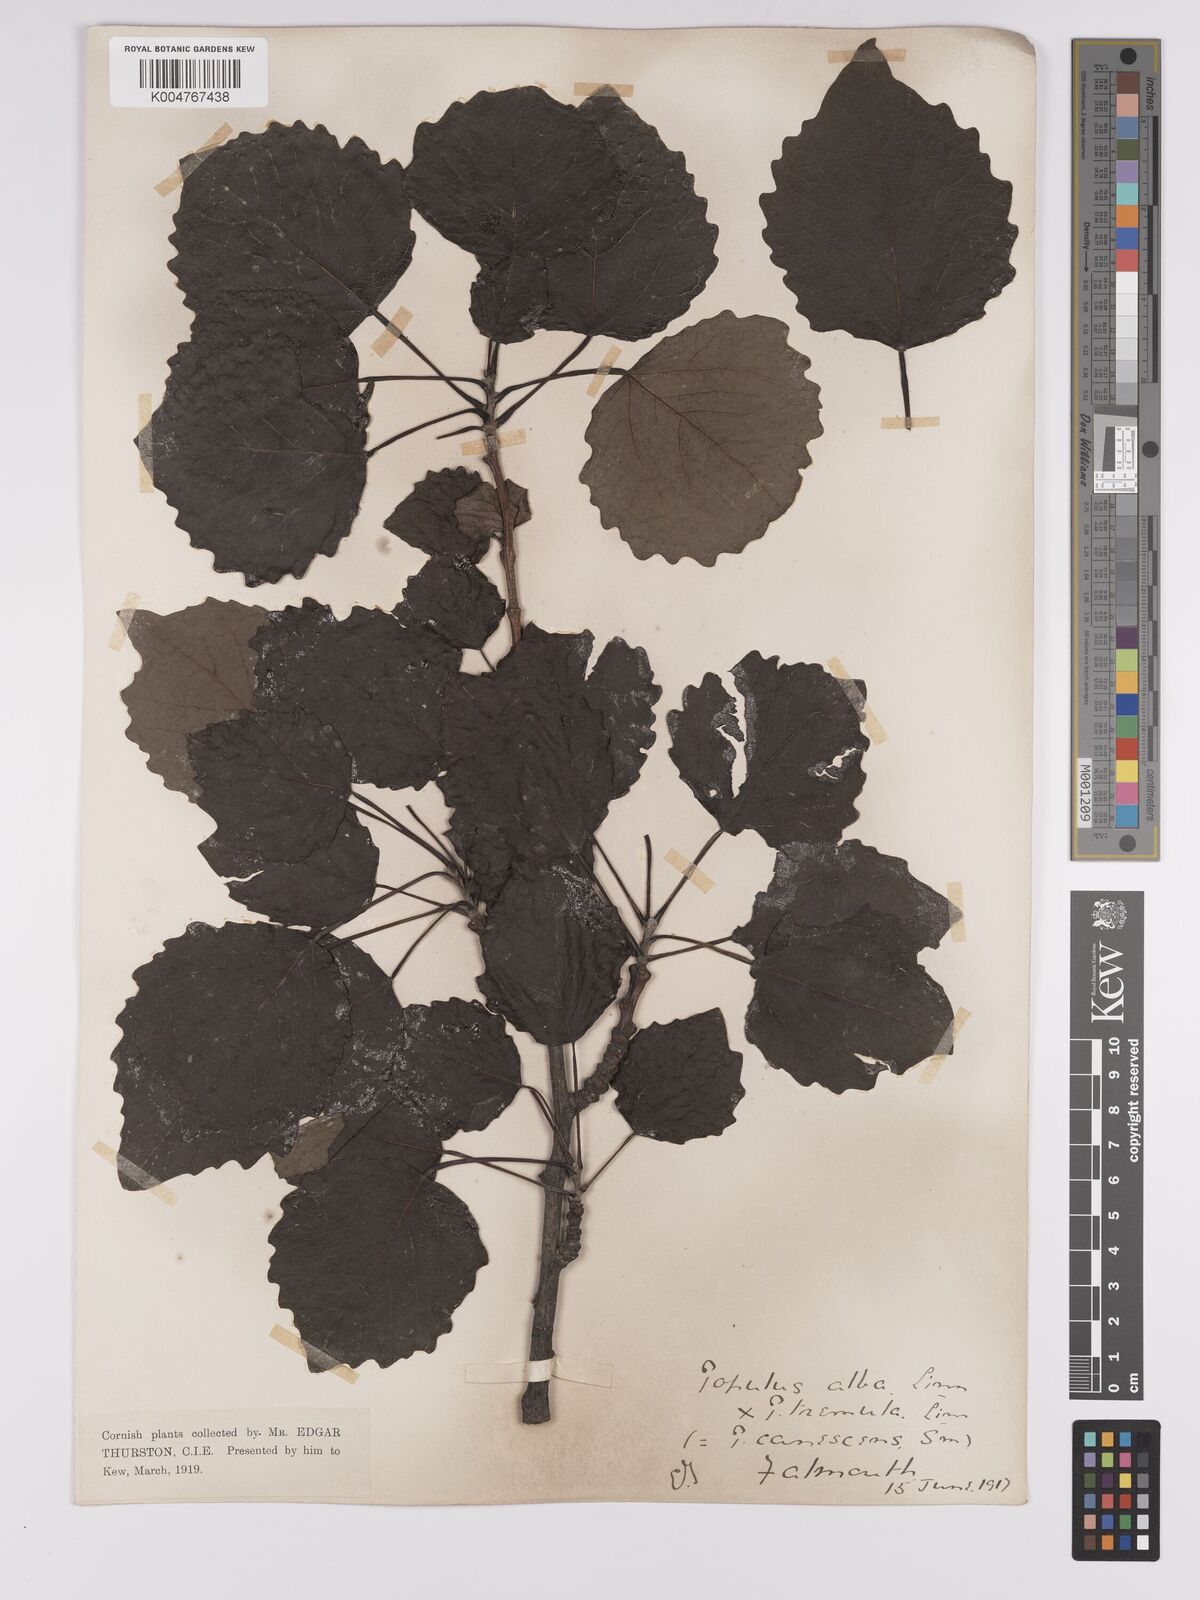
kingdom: Plantae
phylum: Tracheophyta
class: Magnoliopsida
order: Malpighiales
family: Salicaceae
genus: Populus
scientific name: Populus canescens
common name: Gray poplar
